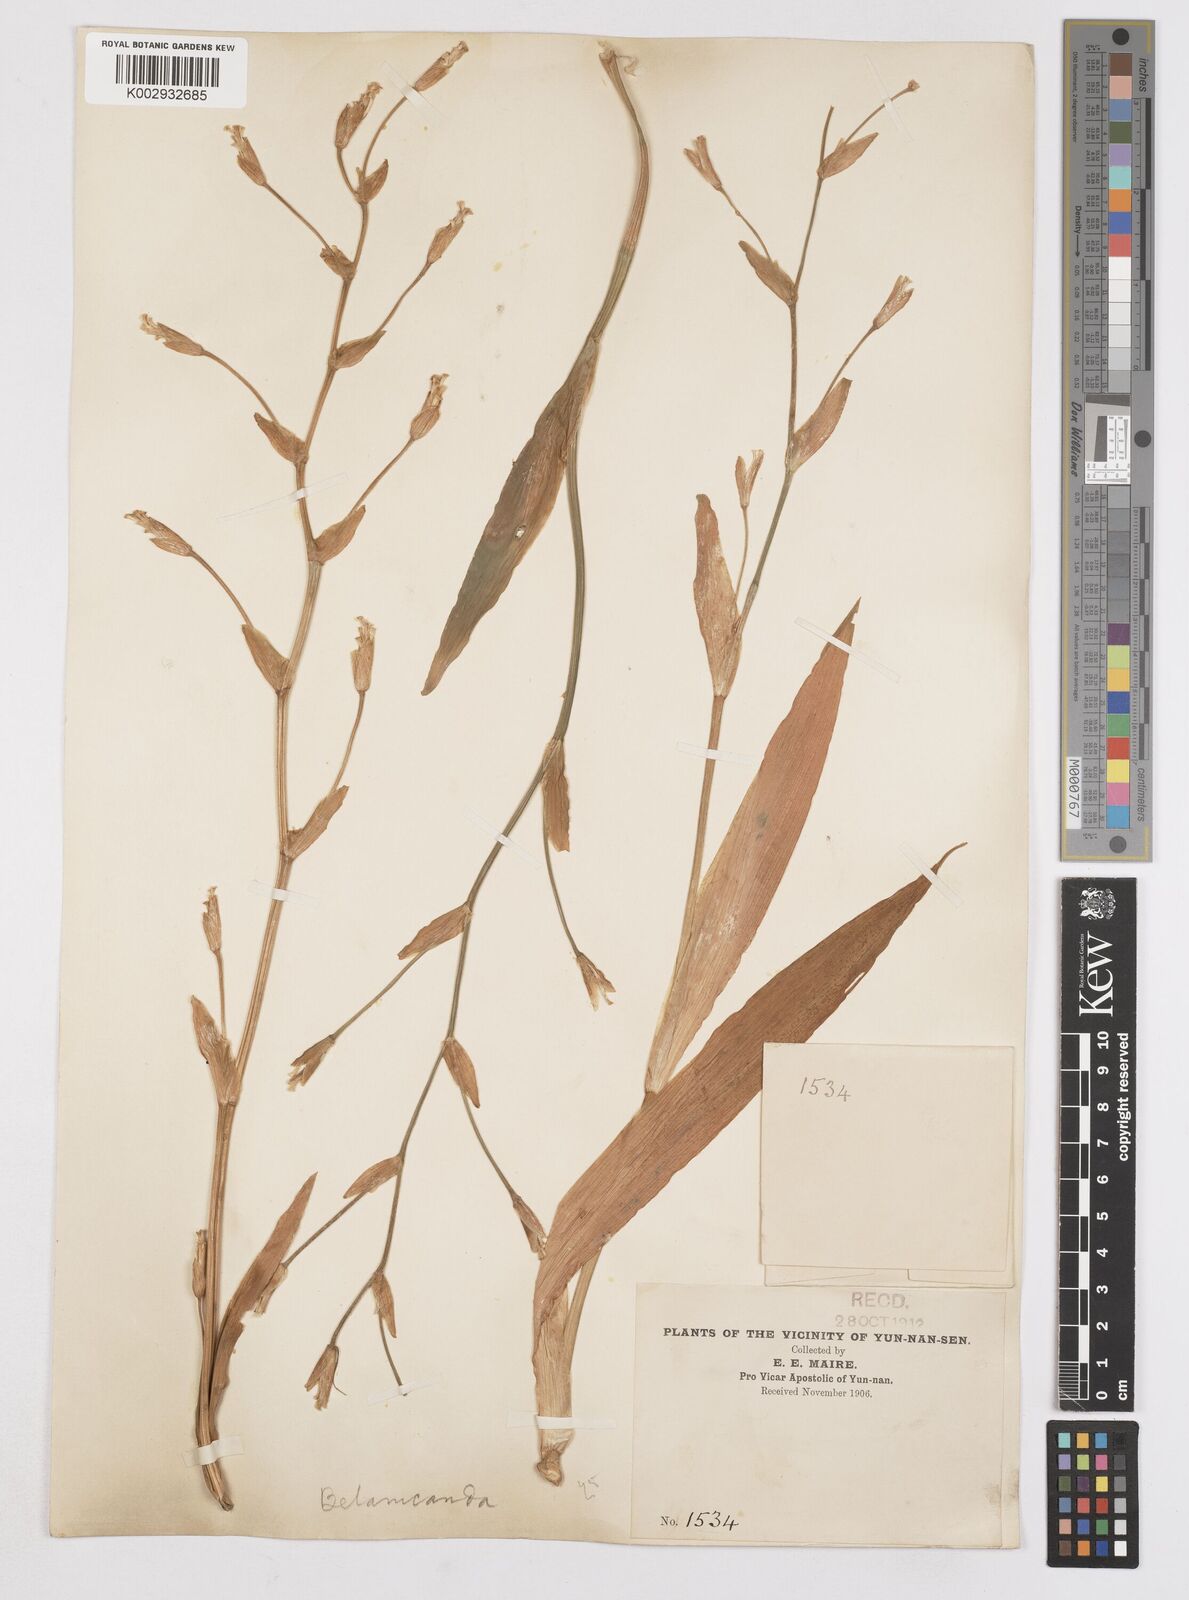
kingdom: Plantae
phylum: Tracheophyta
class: Liliopsida
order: Asparagales
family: Iridaceae
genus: Iris
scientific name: Iris
